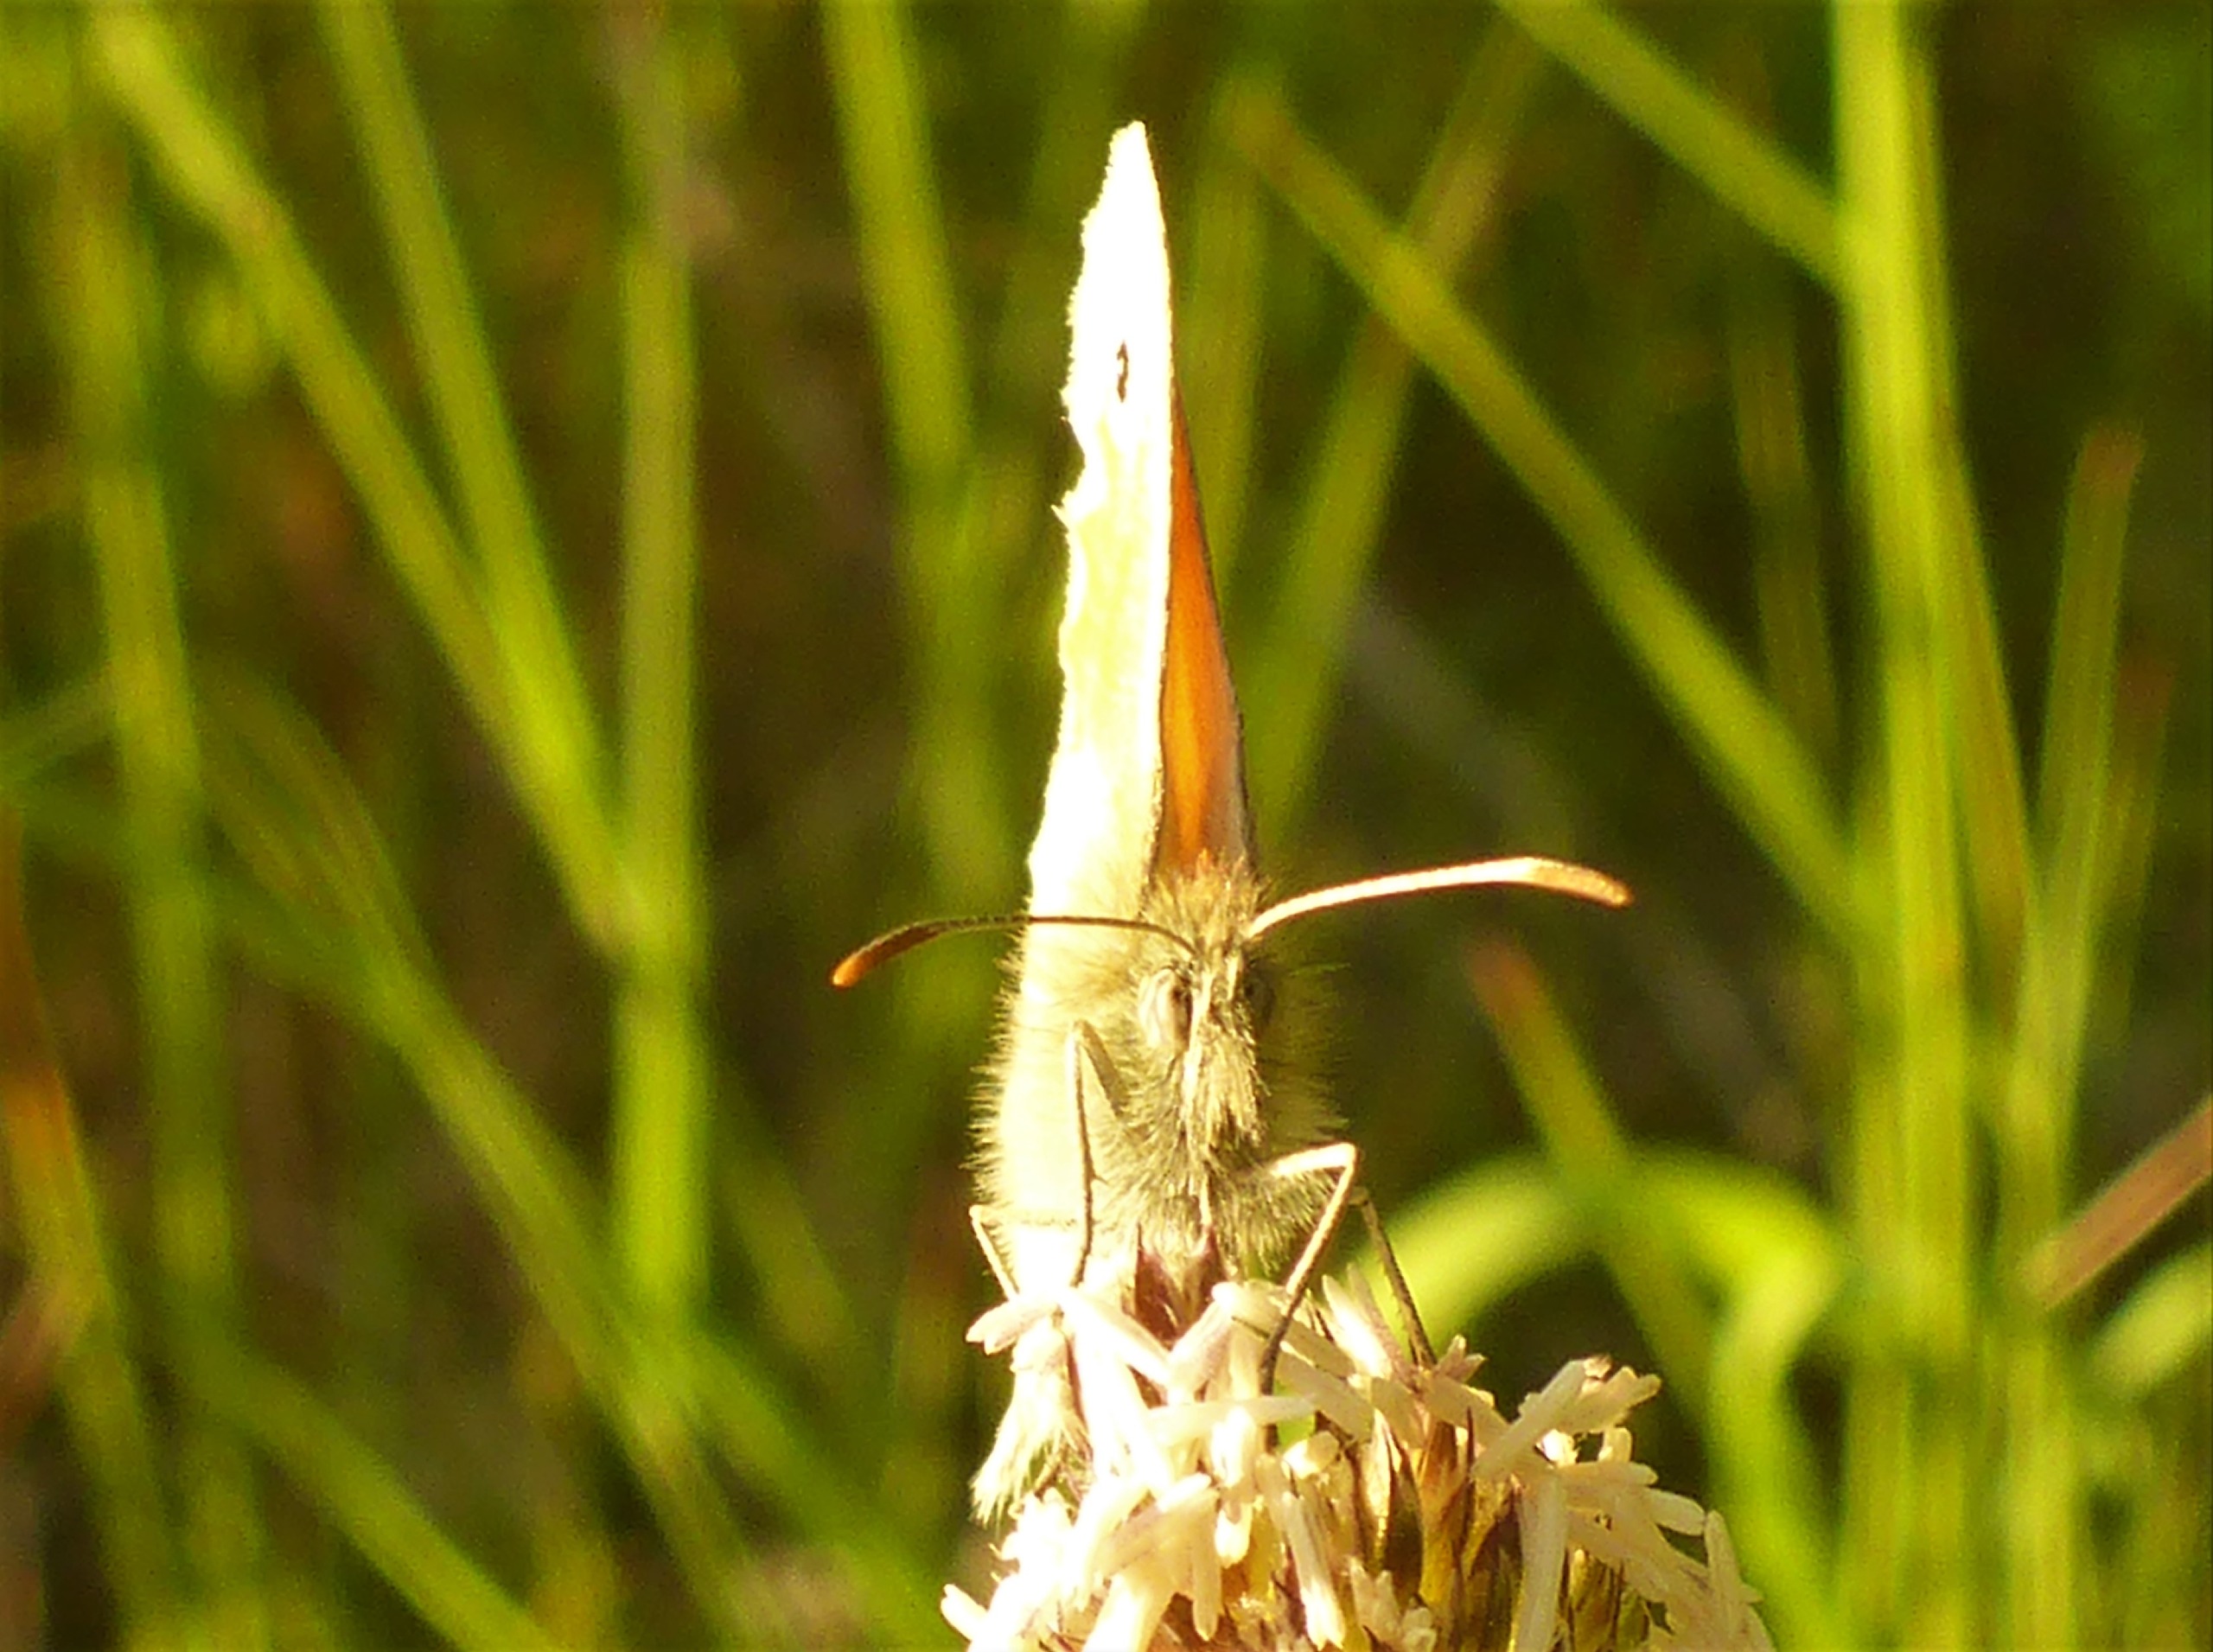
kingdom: Animalia
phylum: Arthropoda
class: Insecta
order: Lepidoptera
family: Nymphalidae
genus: Coenonympha
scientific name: Coenonympha pamphilus
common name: Okkergul randøje
